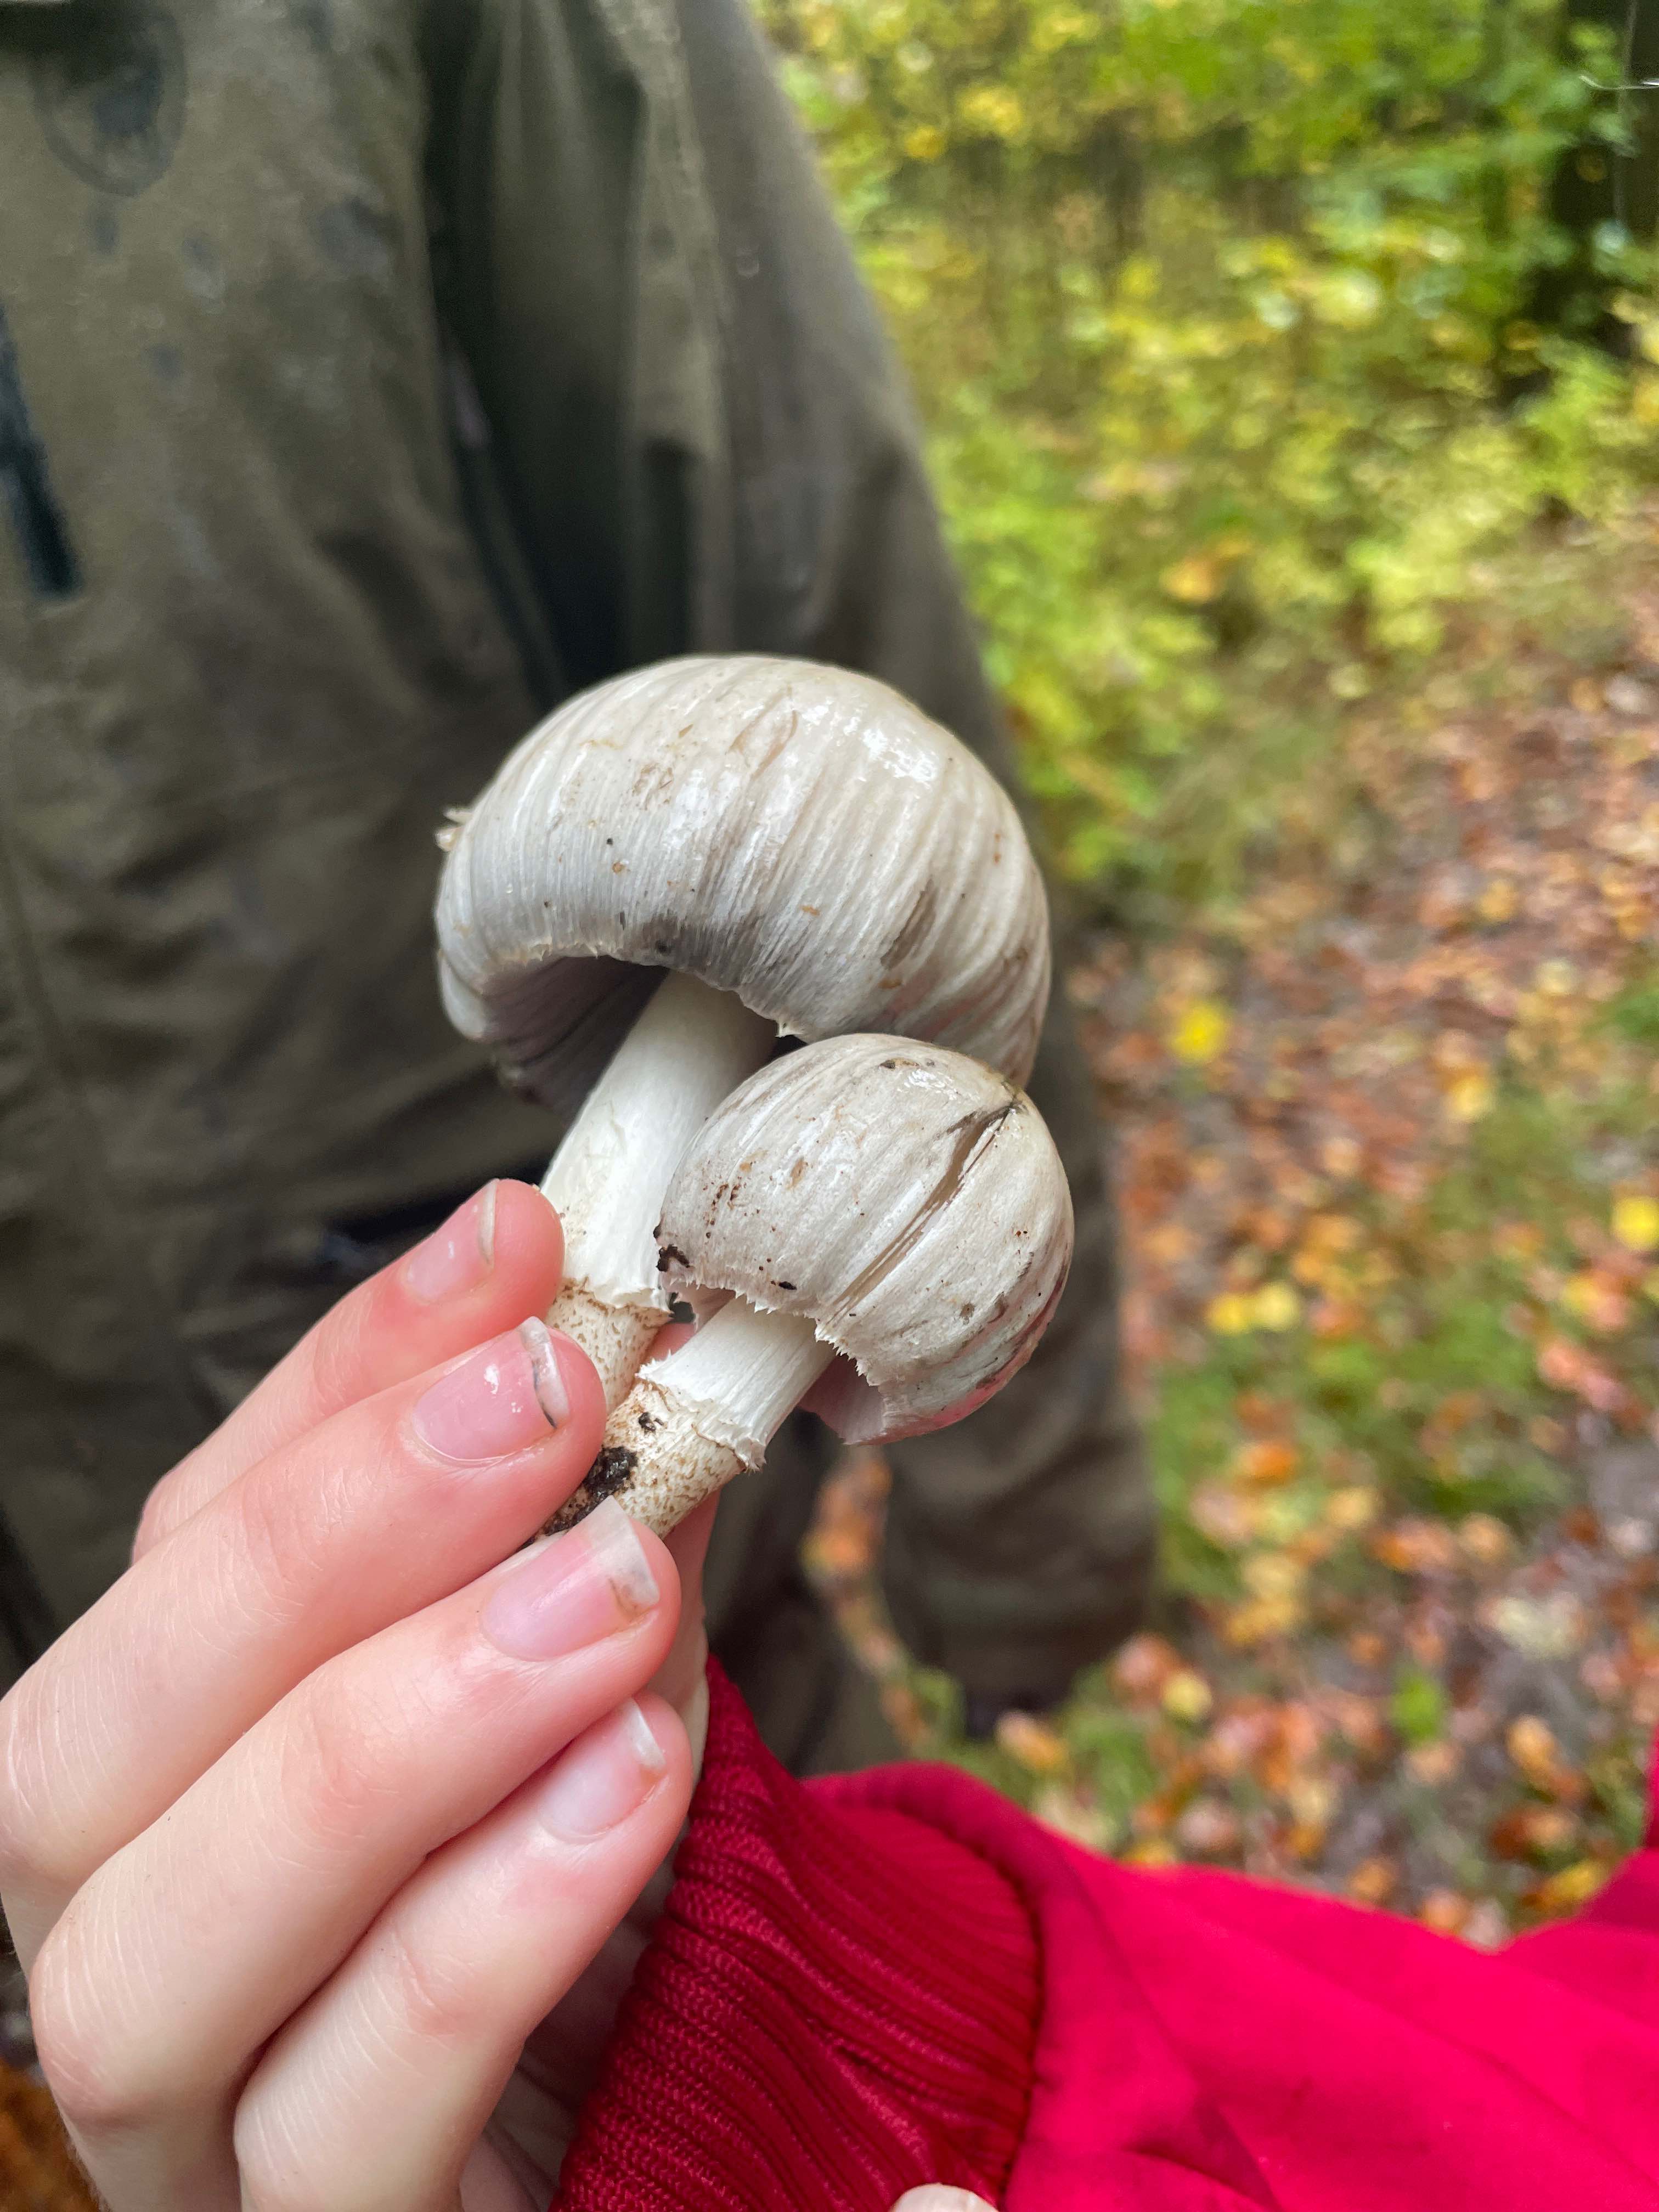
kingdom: Fungi
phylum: Basidiomycota
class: Agaricomycetes
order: Agaricales
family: Psathyrellaceae
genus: Coprinopsis
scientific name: Coprinopsis atramentaria
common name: almindelig blækhat
